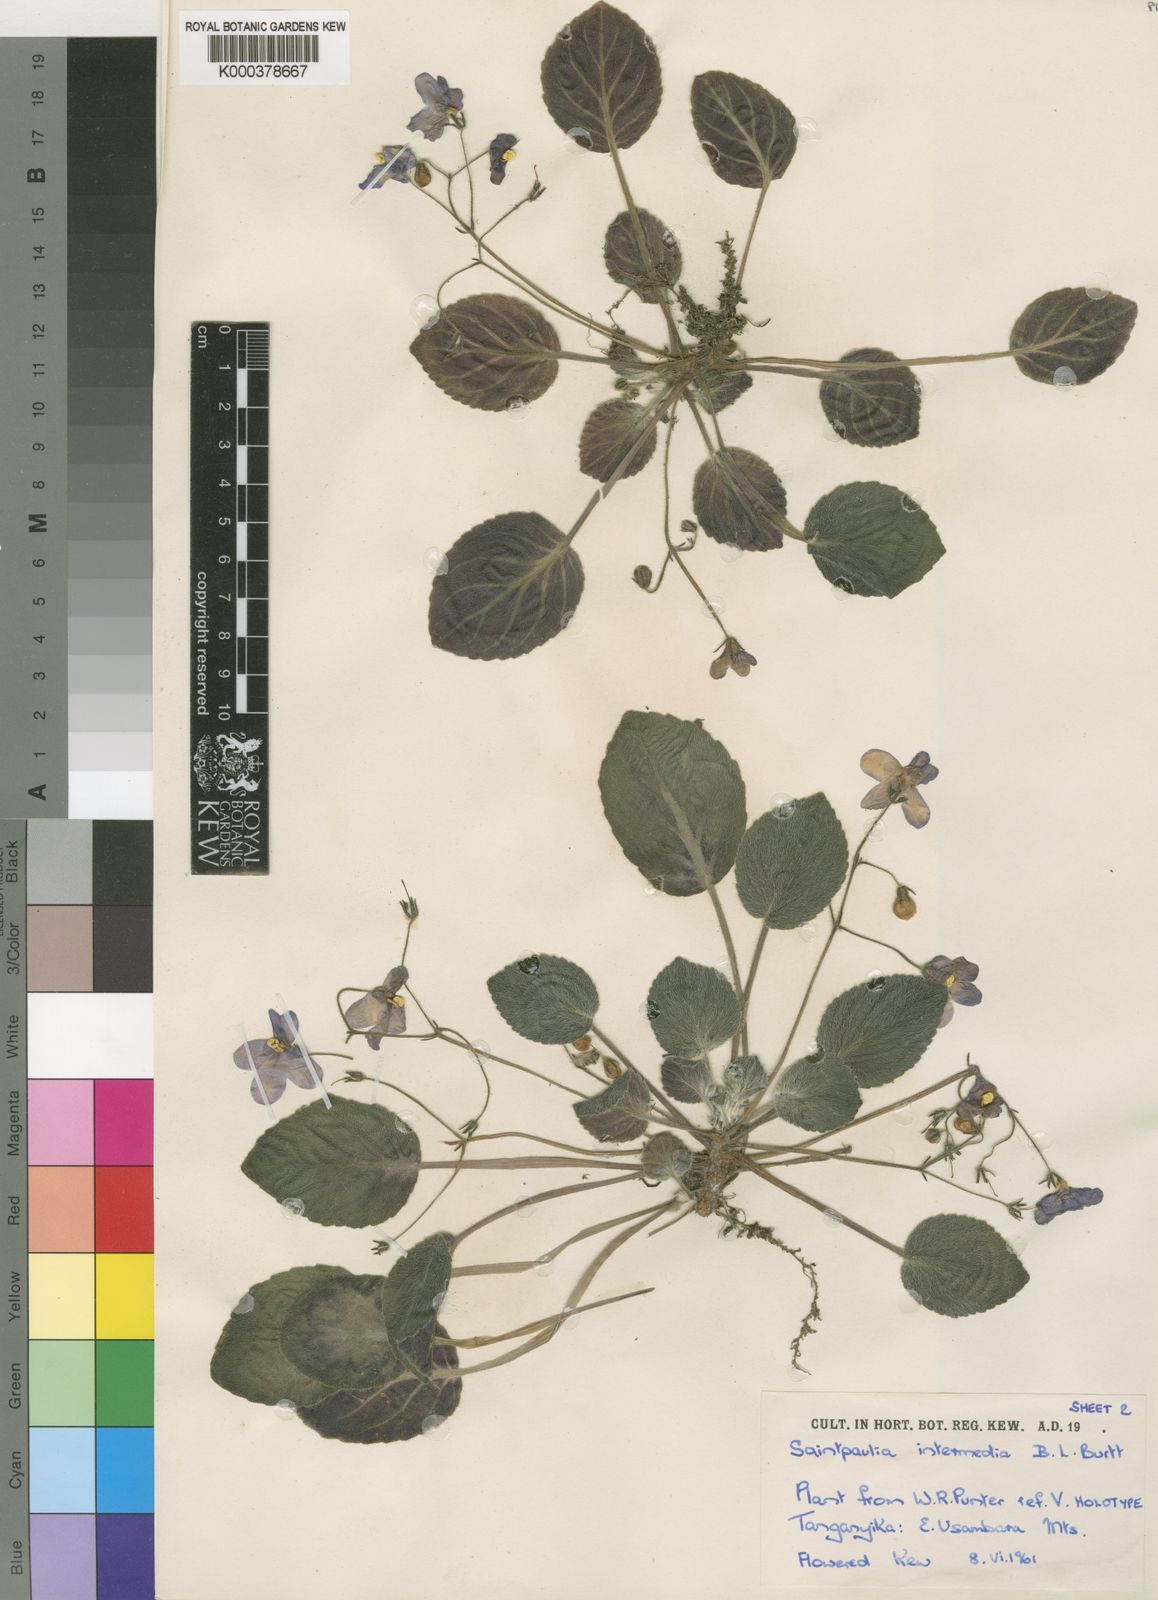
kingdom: Plantae
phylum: Tracheophyta
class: Magnoliopsida
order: Lamiales
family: Gesneriaceae
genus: Streptocarpus
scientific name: Streptocarpus ionanthus
